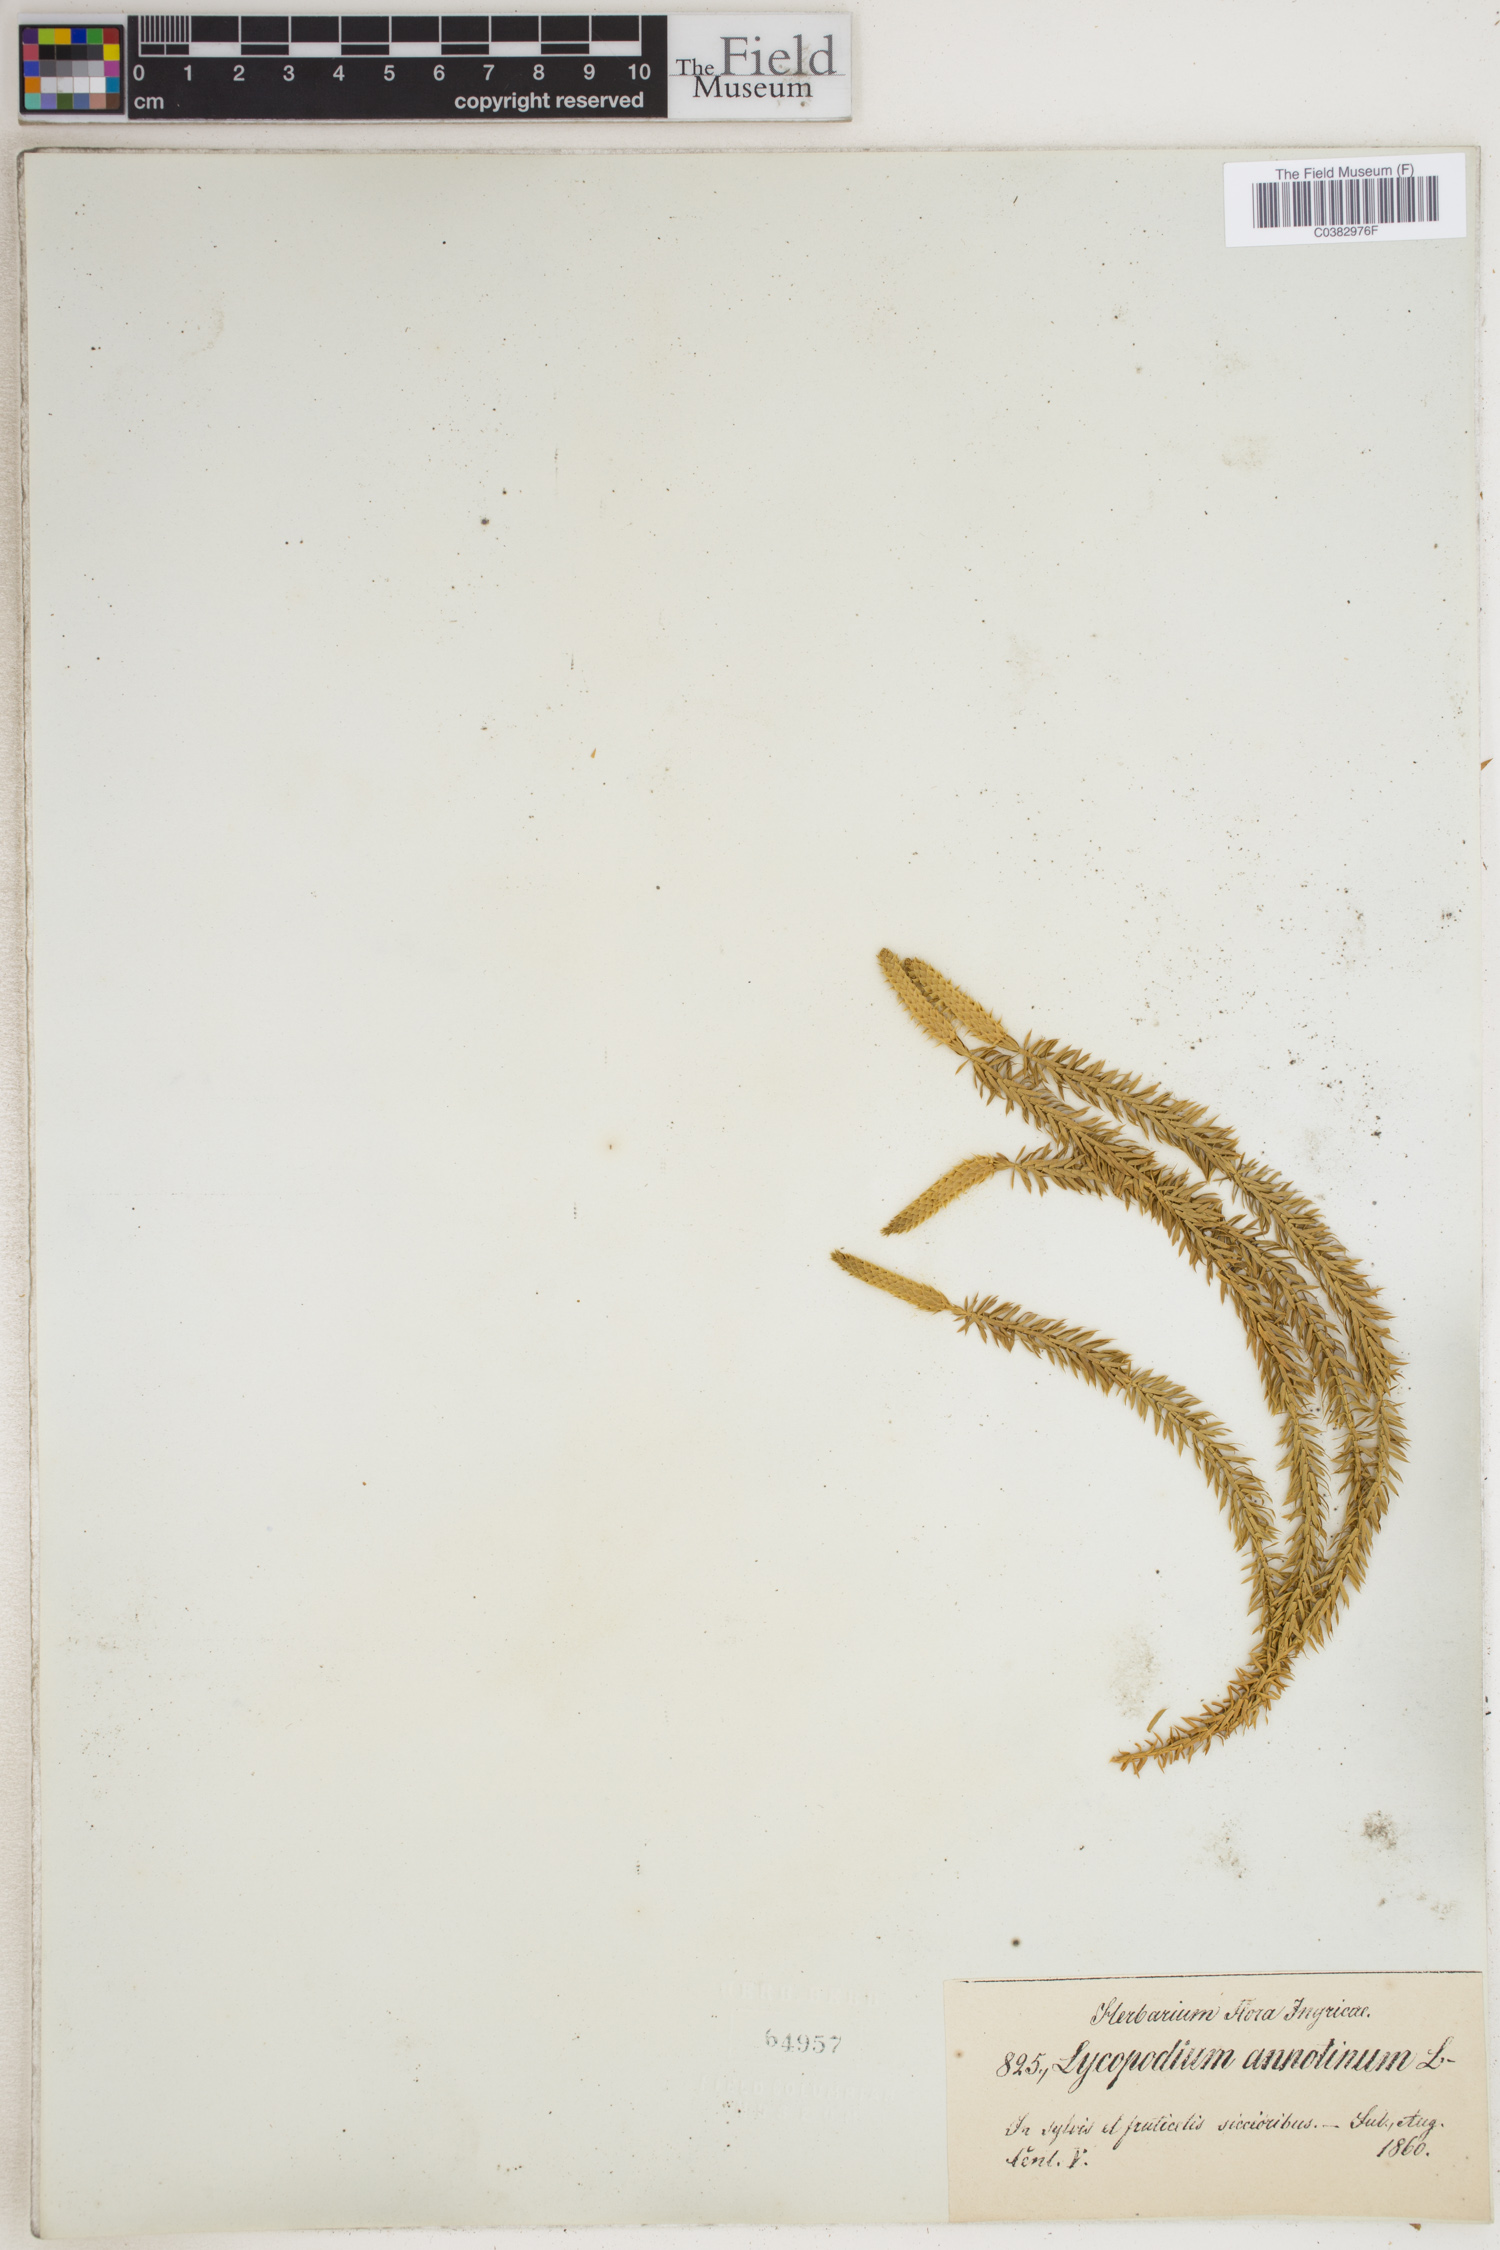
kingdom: Plantae
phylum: Tracheophyta
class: Lycopodiopsida
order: Lycopodiales
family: Lycopodiaceae
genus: Spinulum
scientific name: Spinulum annotinum
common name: Interrupted club-moss
